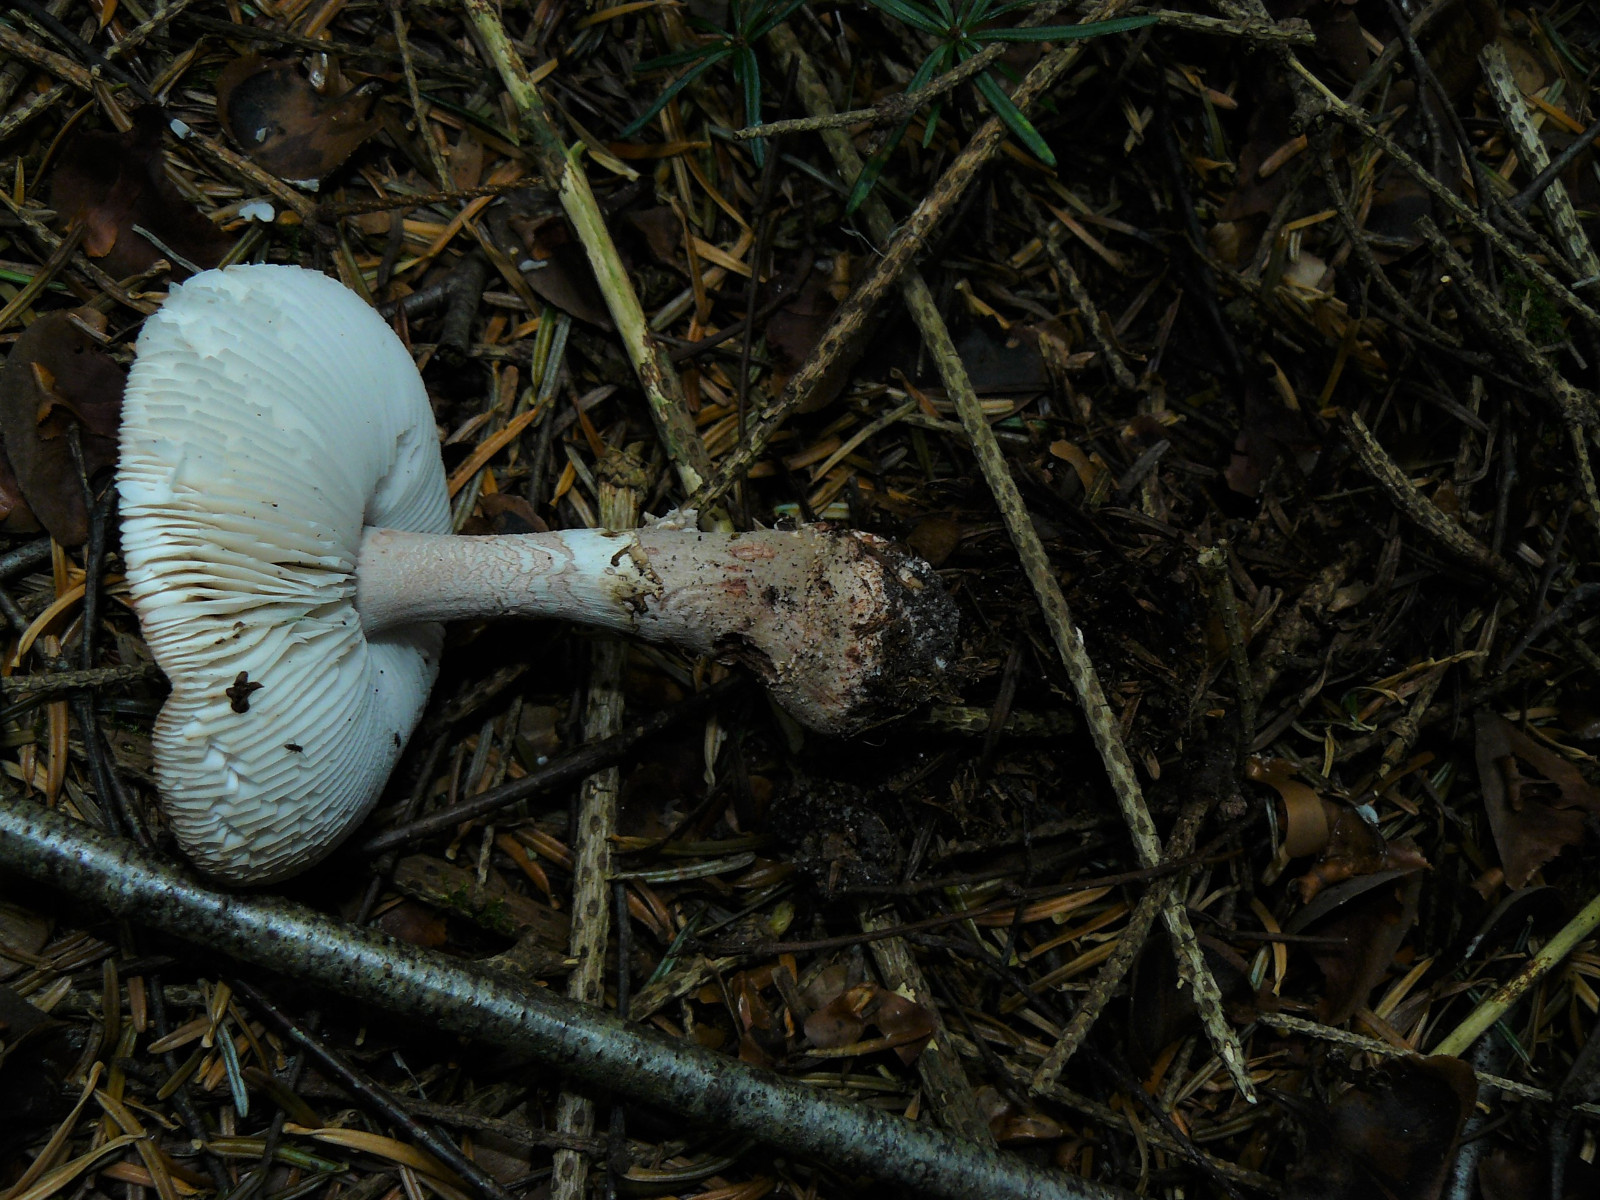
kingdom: Fungi
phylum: Basidiomycota
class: Agaricomycetes
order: Agaricales
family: Amanitaceae
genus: Amanita
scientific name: Amanita rubescens
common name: rødmende fluesvamp
